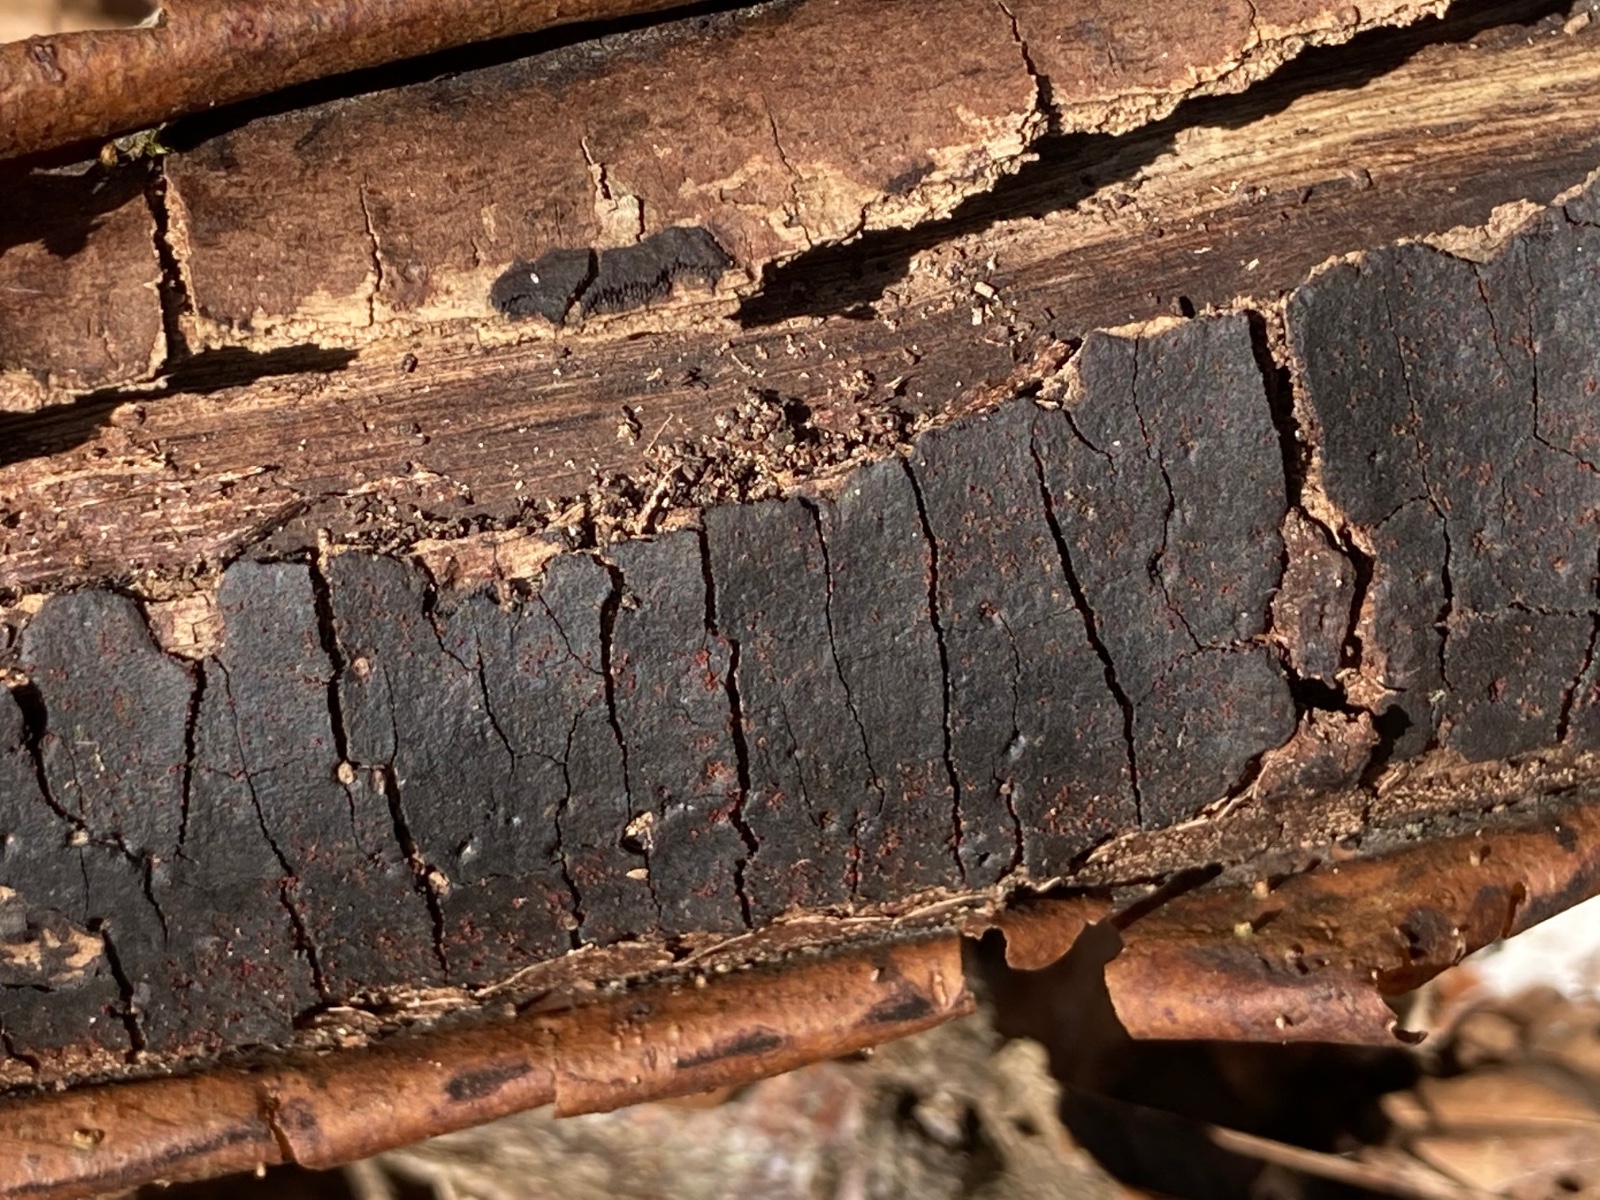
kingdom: Fungi
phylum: Ascomycota
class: Sordariomycetes
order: Hypocreales
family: Nectriaceae
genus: Dialonectria
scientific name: Dialonectria episphaeria
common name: kulskorpe-cinnobersvamp
